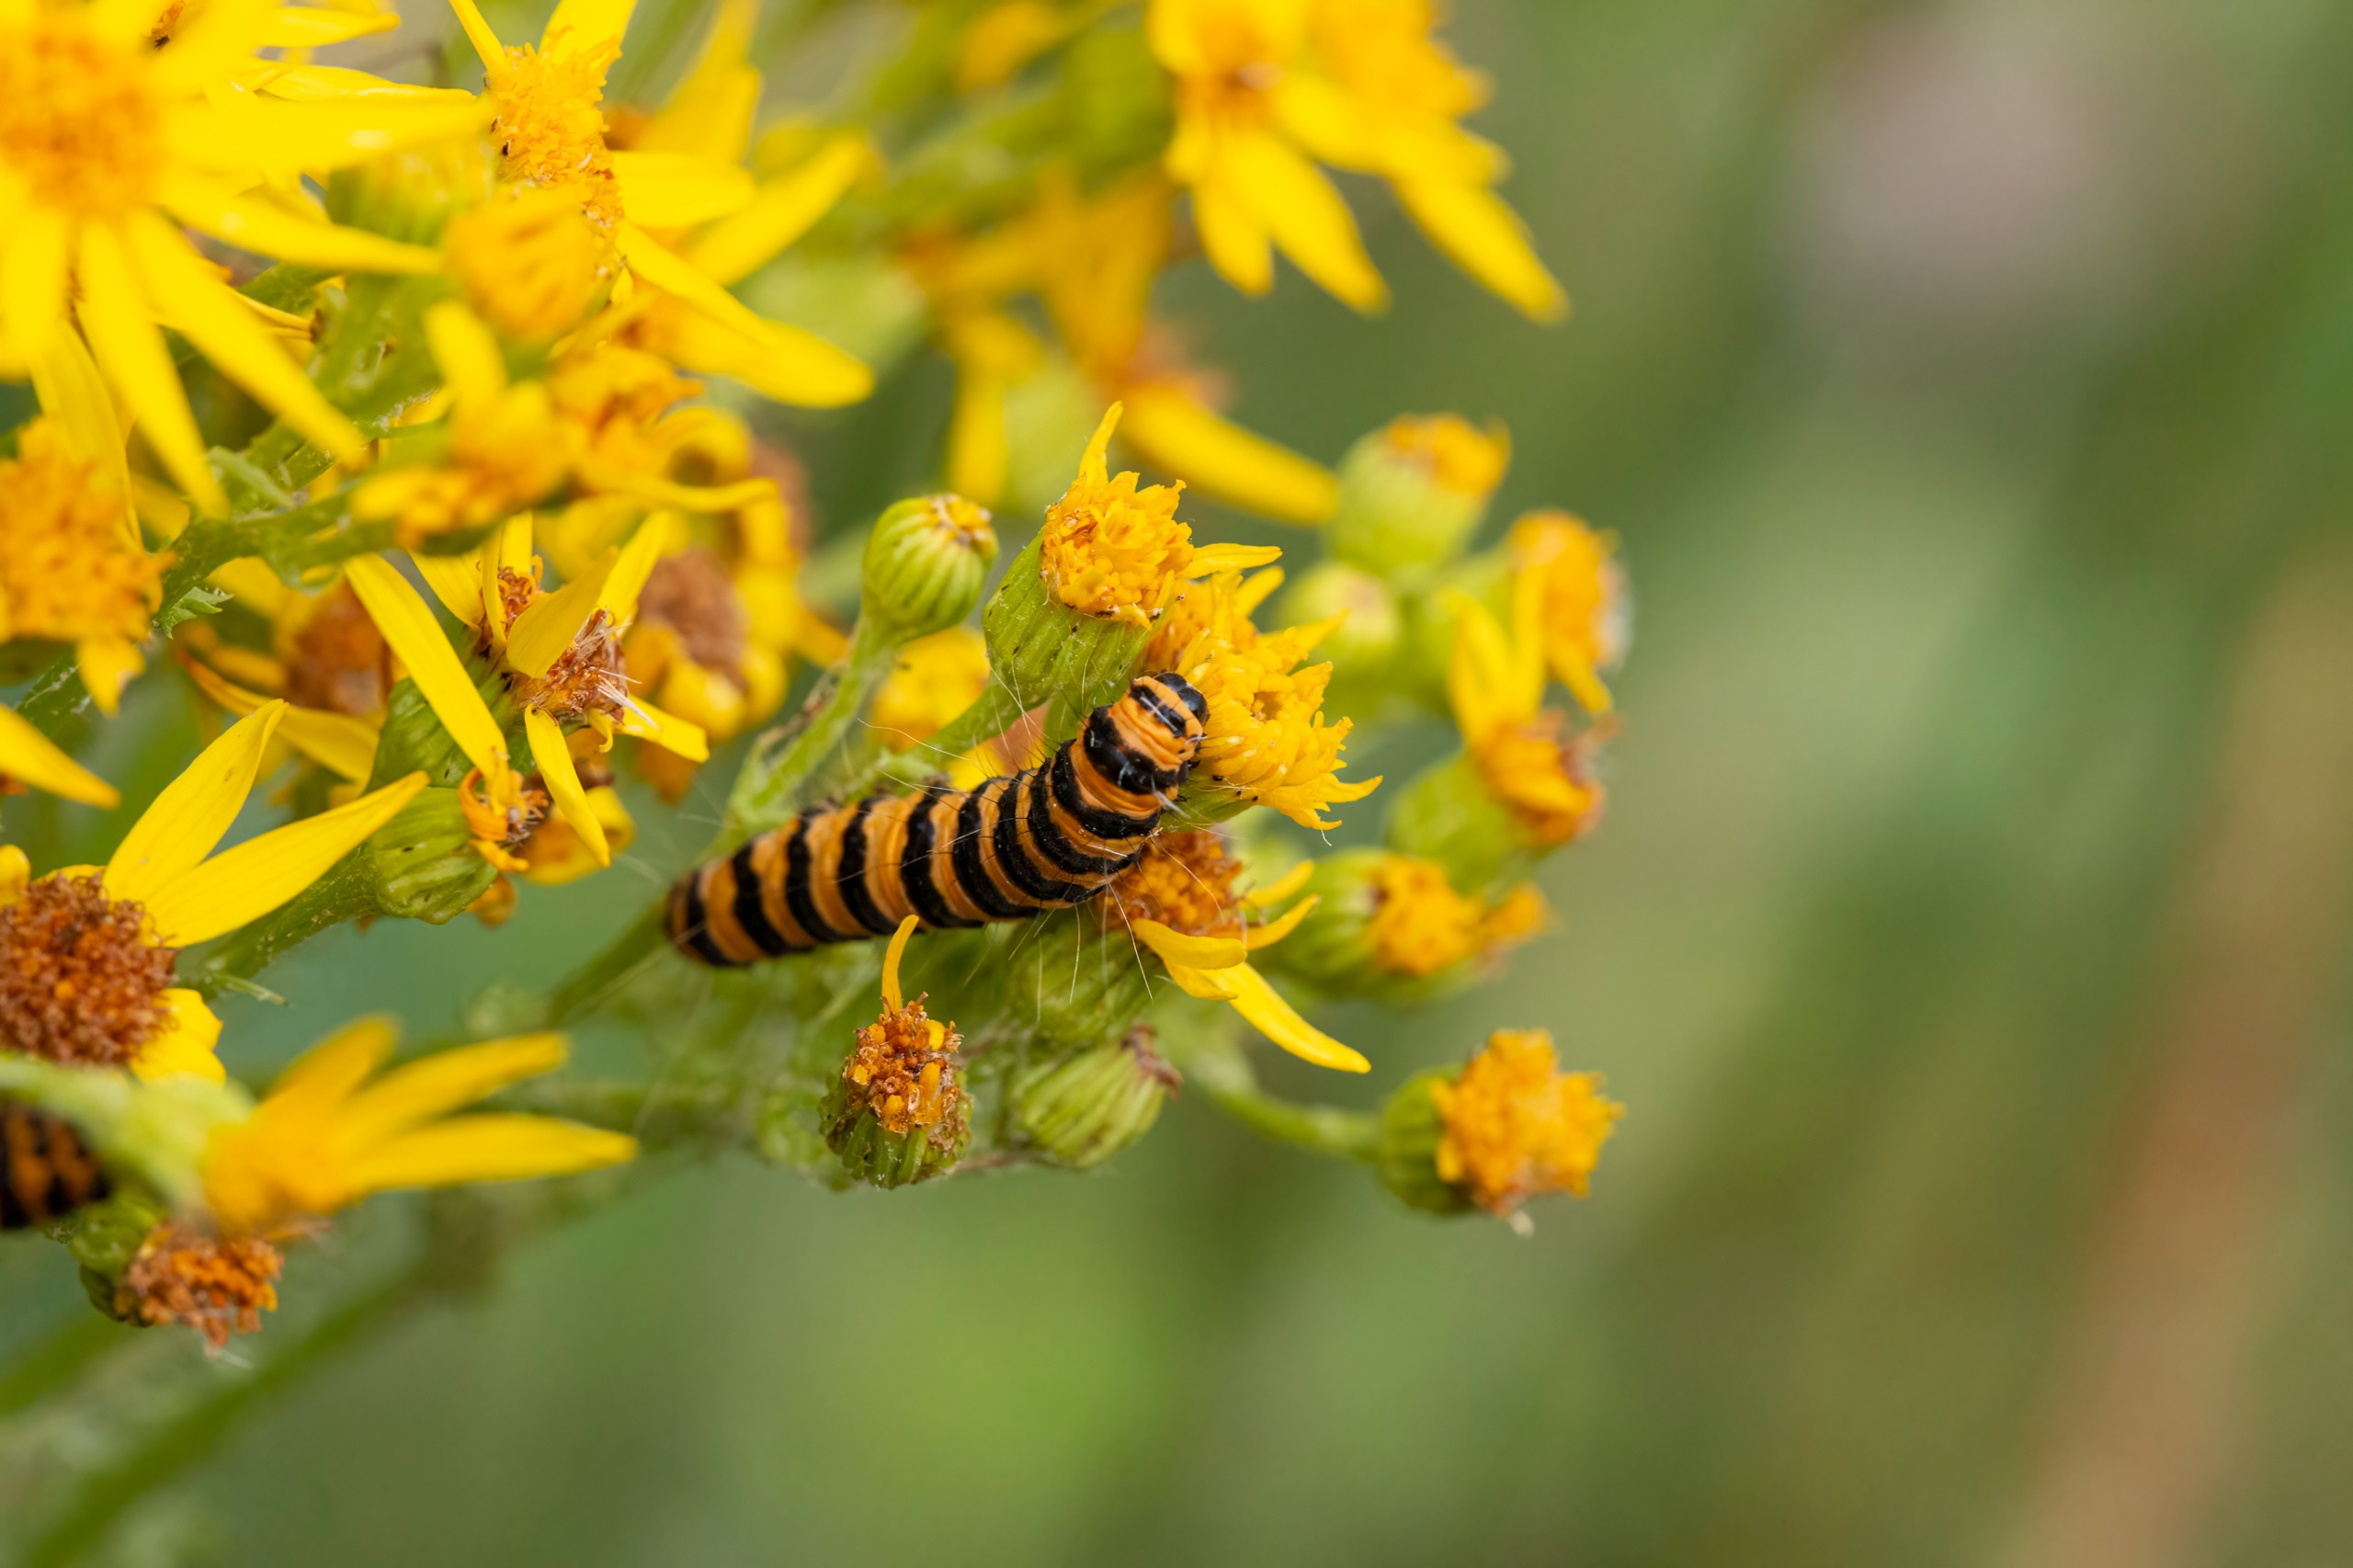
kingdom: Animalia
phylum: Arthropoda
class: Insecta
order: Lepidoptera
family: Erebidae
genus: Tyria
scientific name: Tyria jacobaeae
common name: Blodplet
